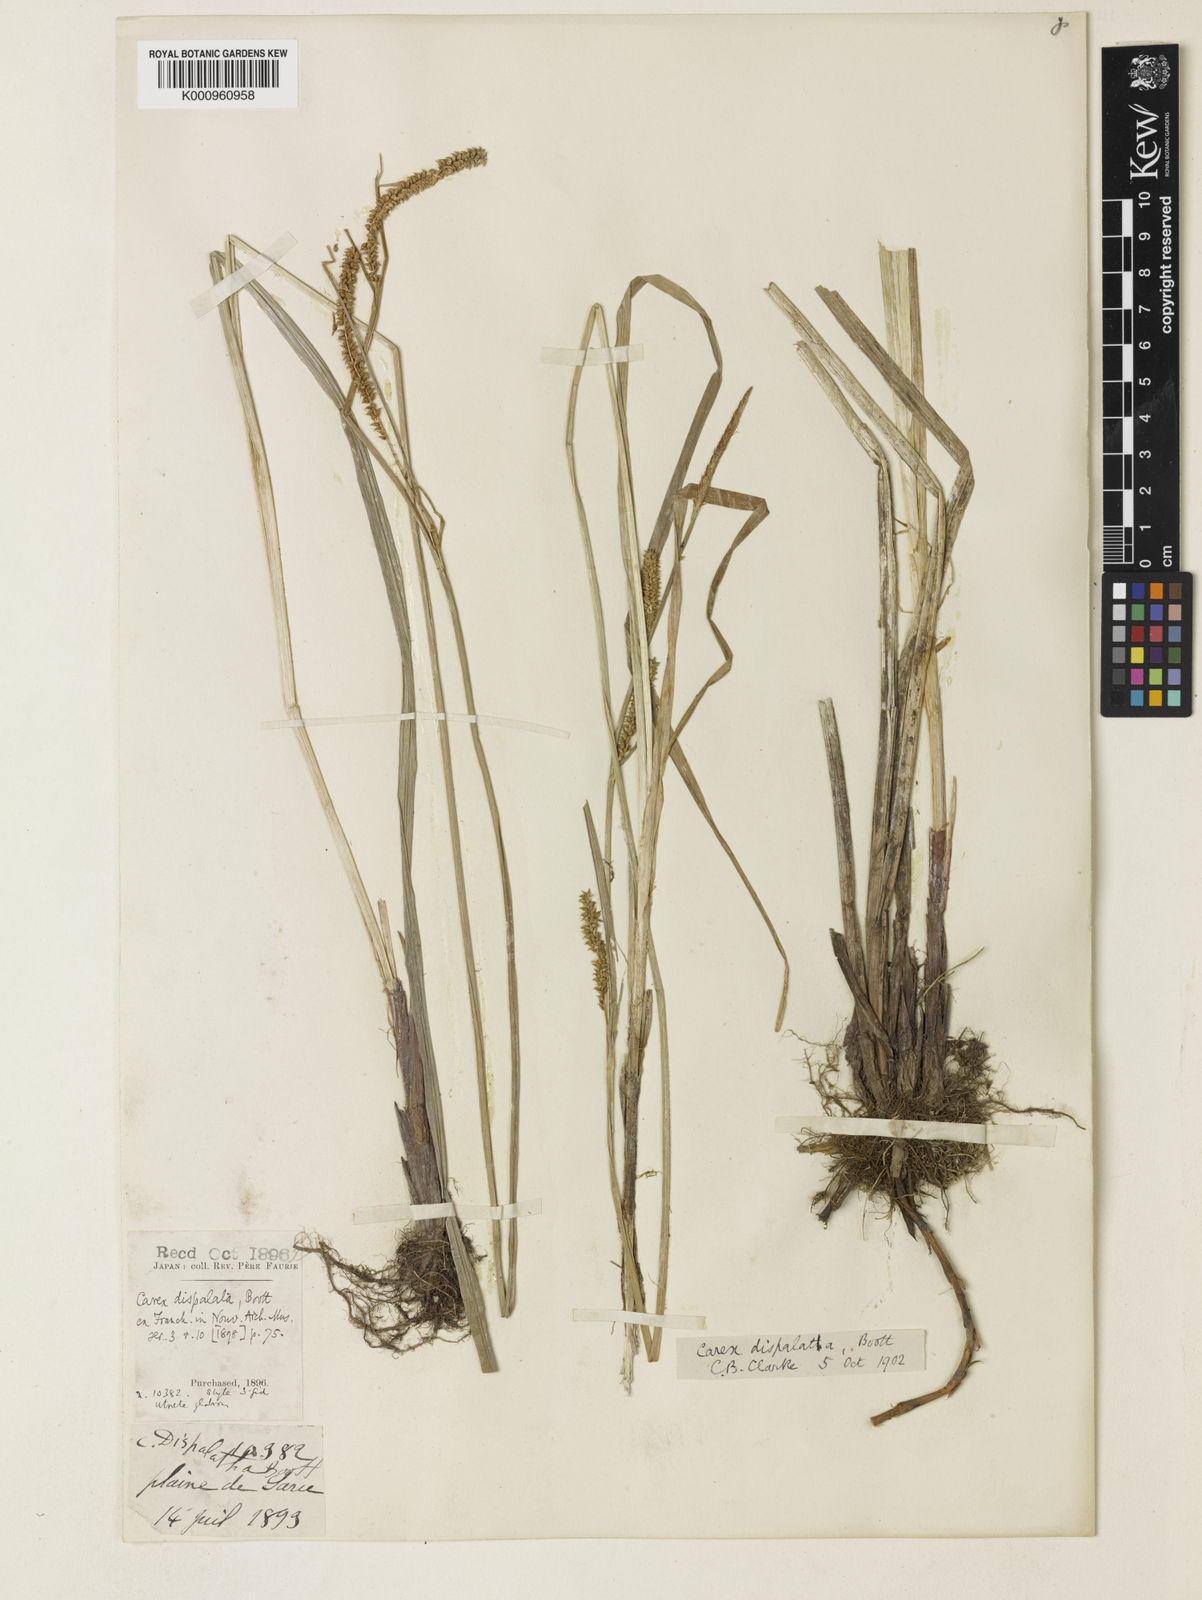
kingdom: Plantae
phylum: Tracheophyta
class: Liliopsida
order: Poales
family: Cyperaceae
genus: Carex
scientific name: Carex dispalata
